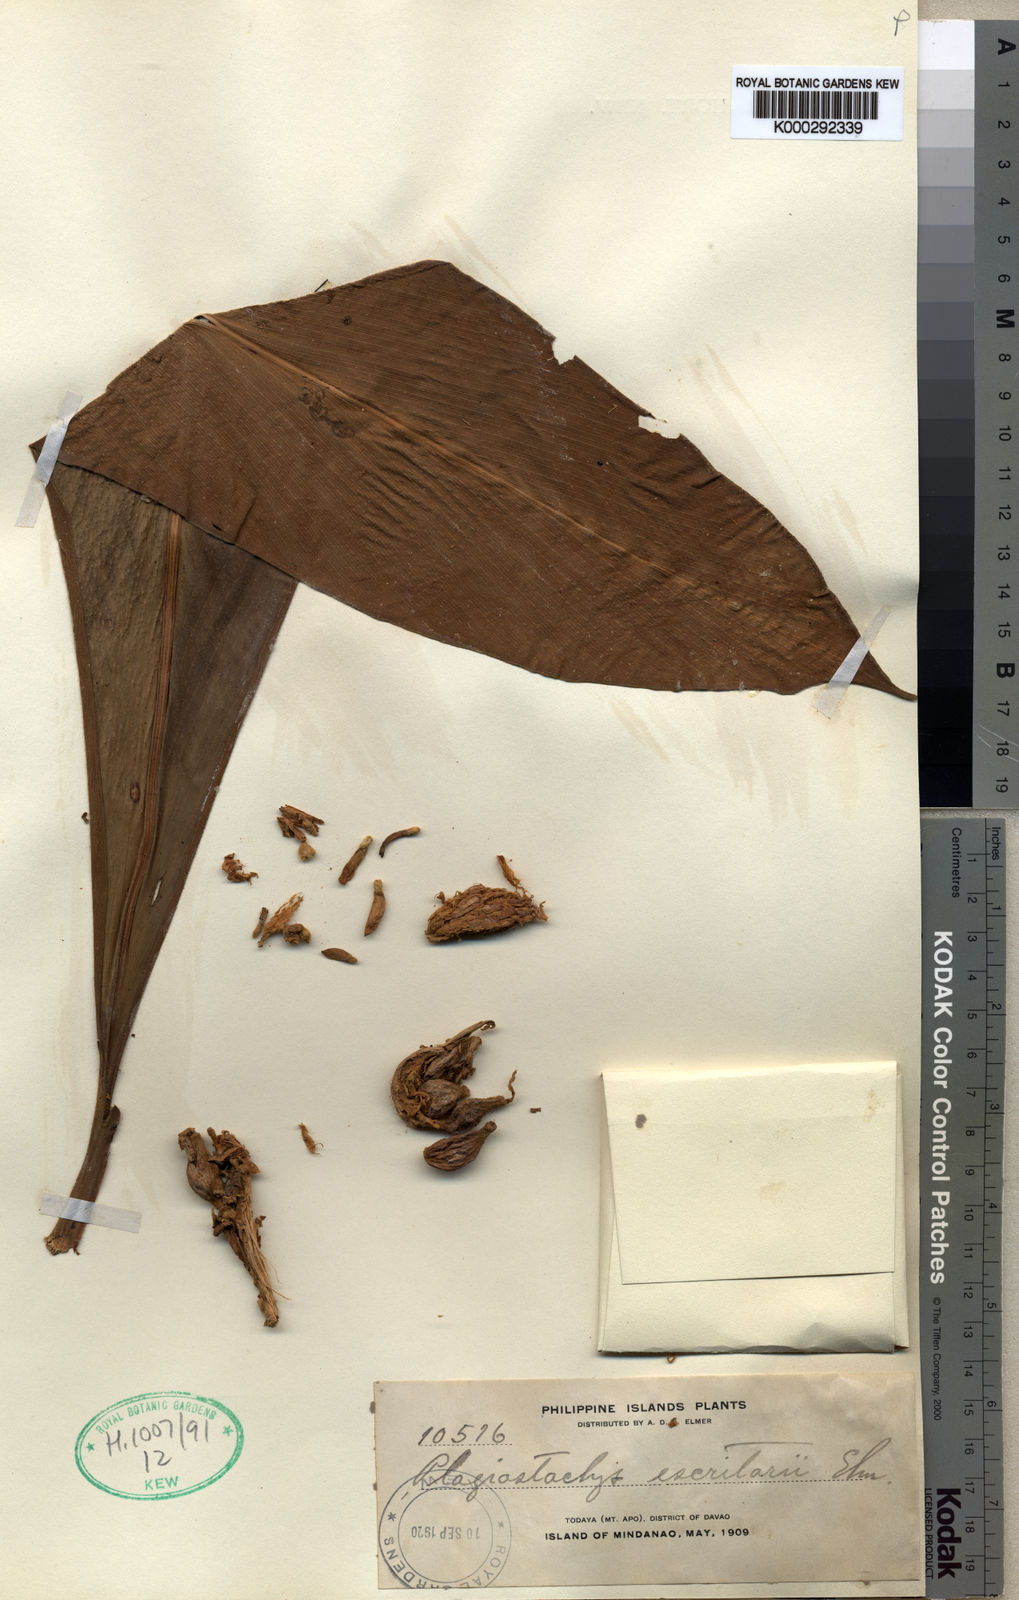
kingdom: Plantae
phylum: Tracheophyta
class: Liliopsida
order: Zingiberales
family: Zingiberaceae
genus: Plagiostachys
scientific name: Plagiostachys escritorii
